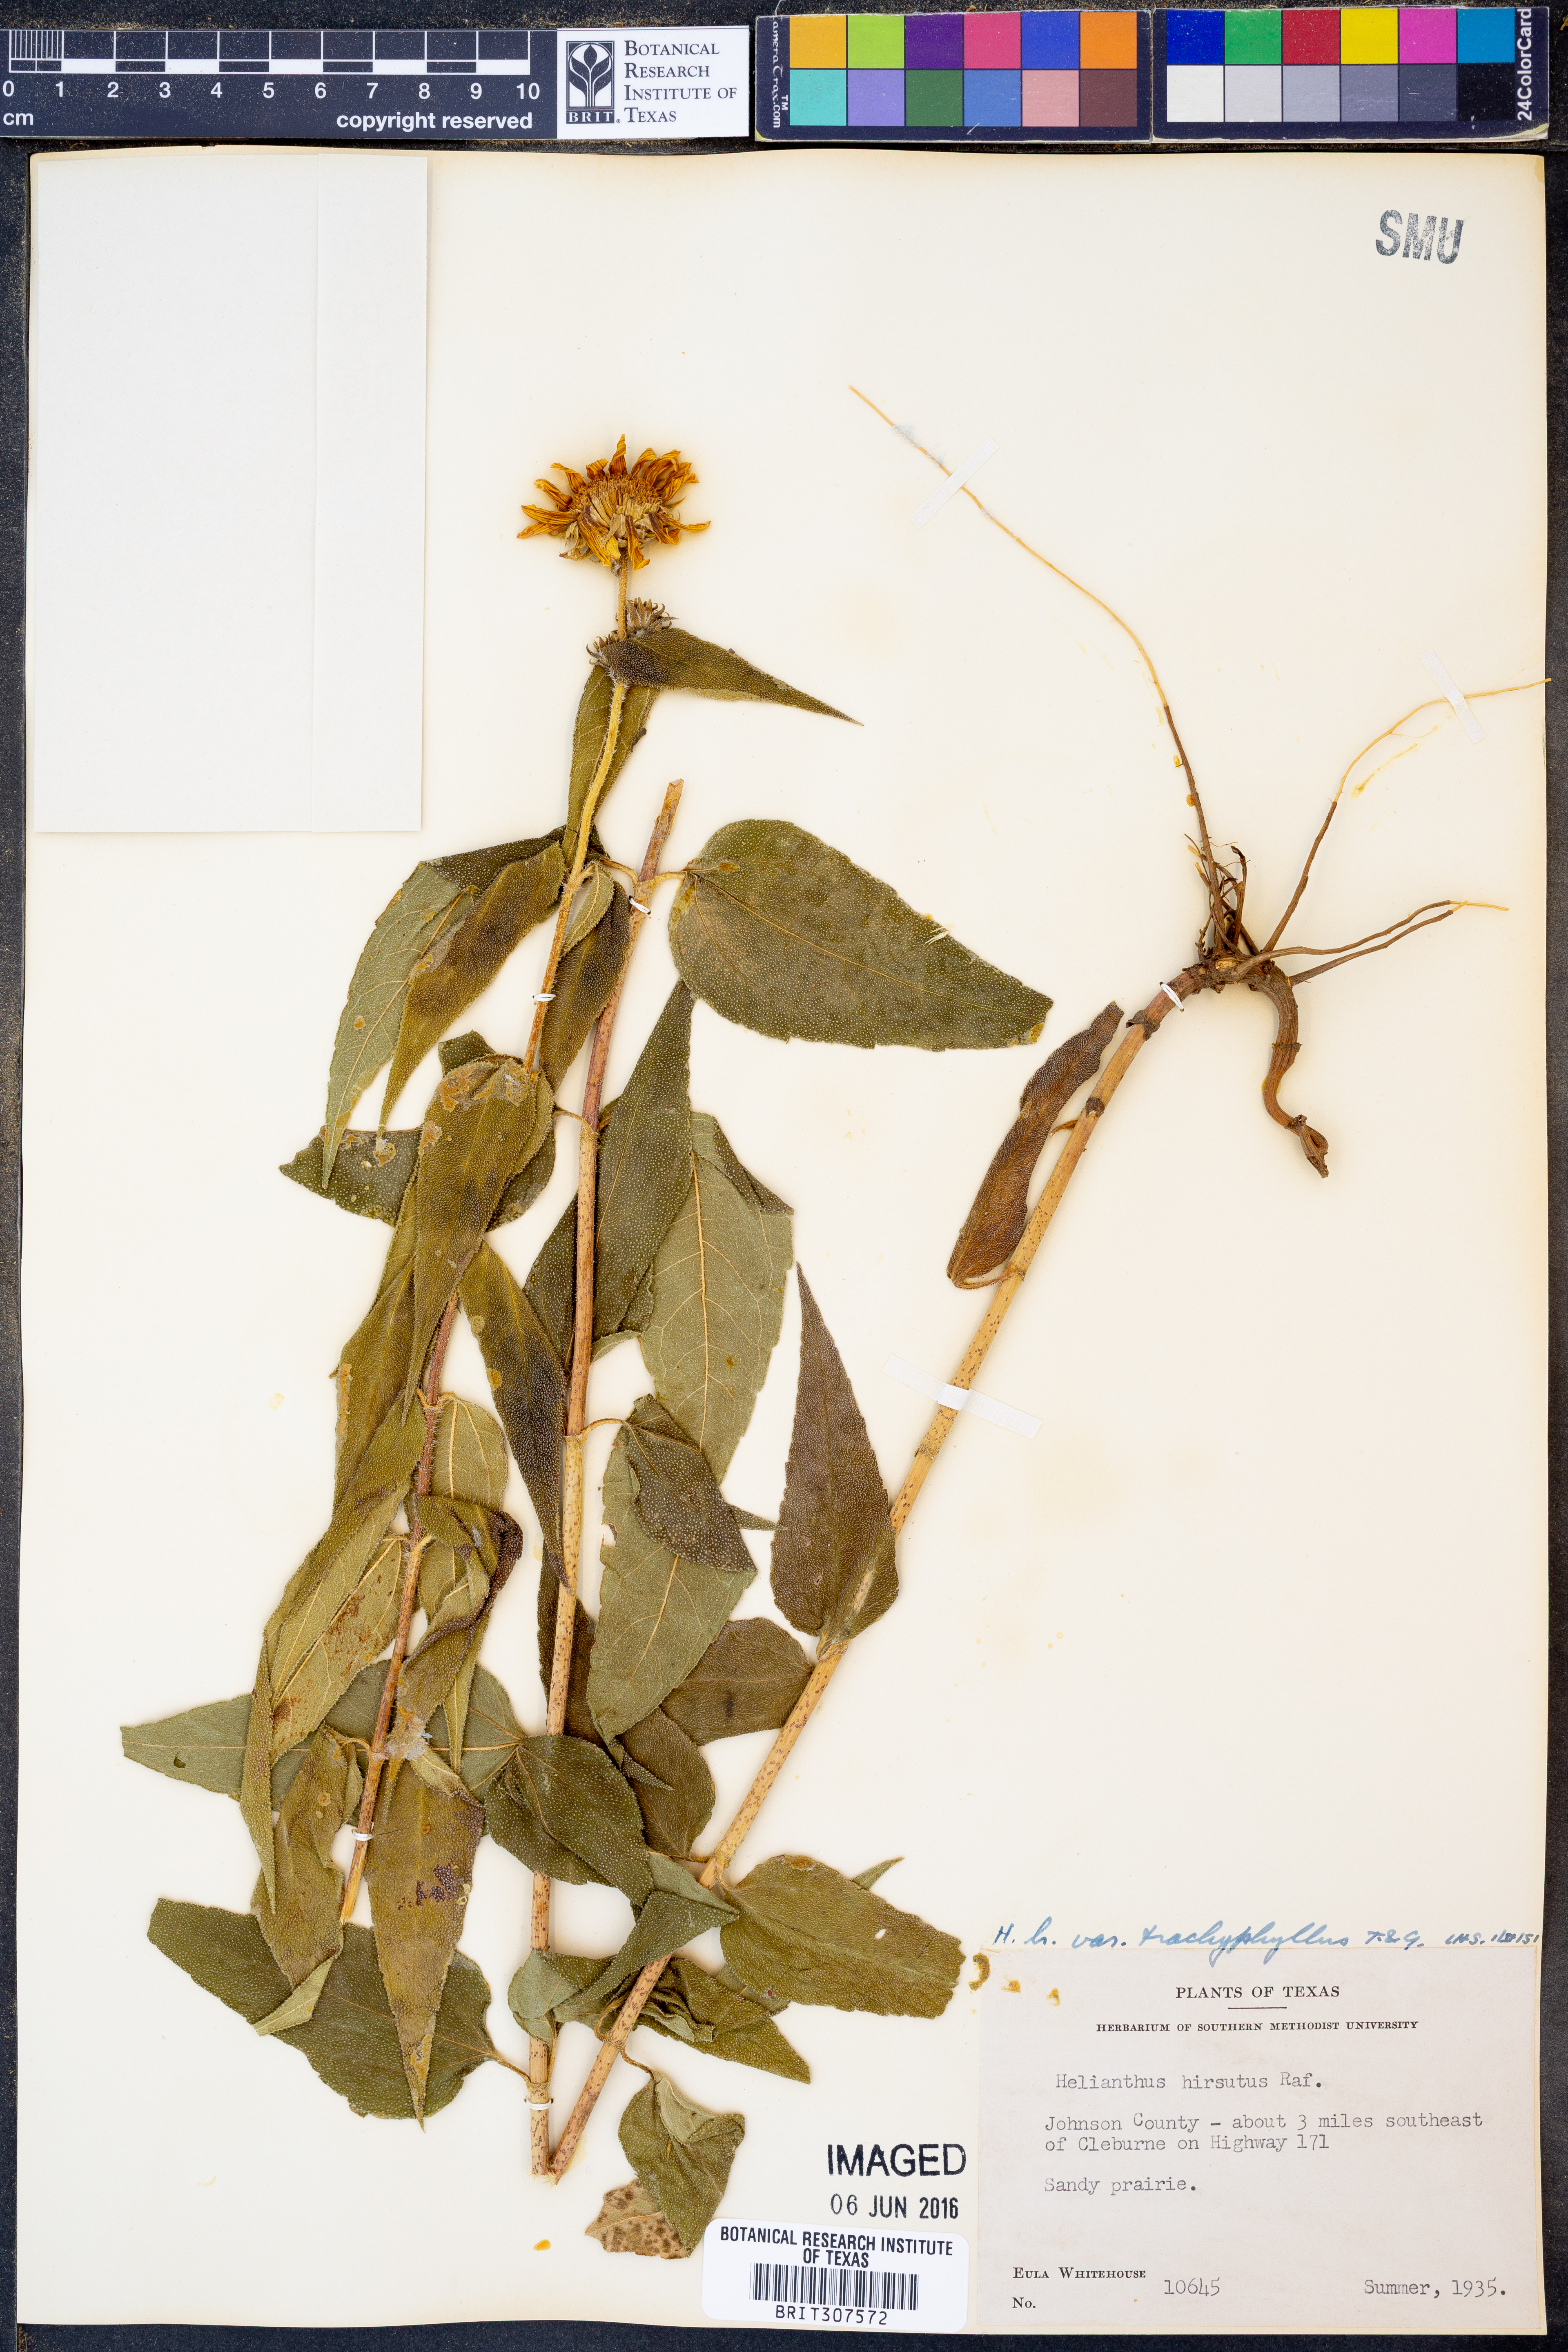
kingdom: Plantae
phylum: Tracheophyta
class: Magnoliopsida
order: Asterales
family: Asteraceae
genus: Helianthus
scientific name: Helianthus hirsutus
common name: Hairy sunflower
